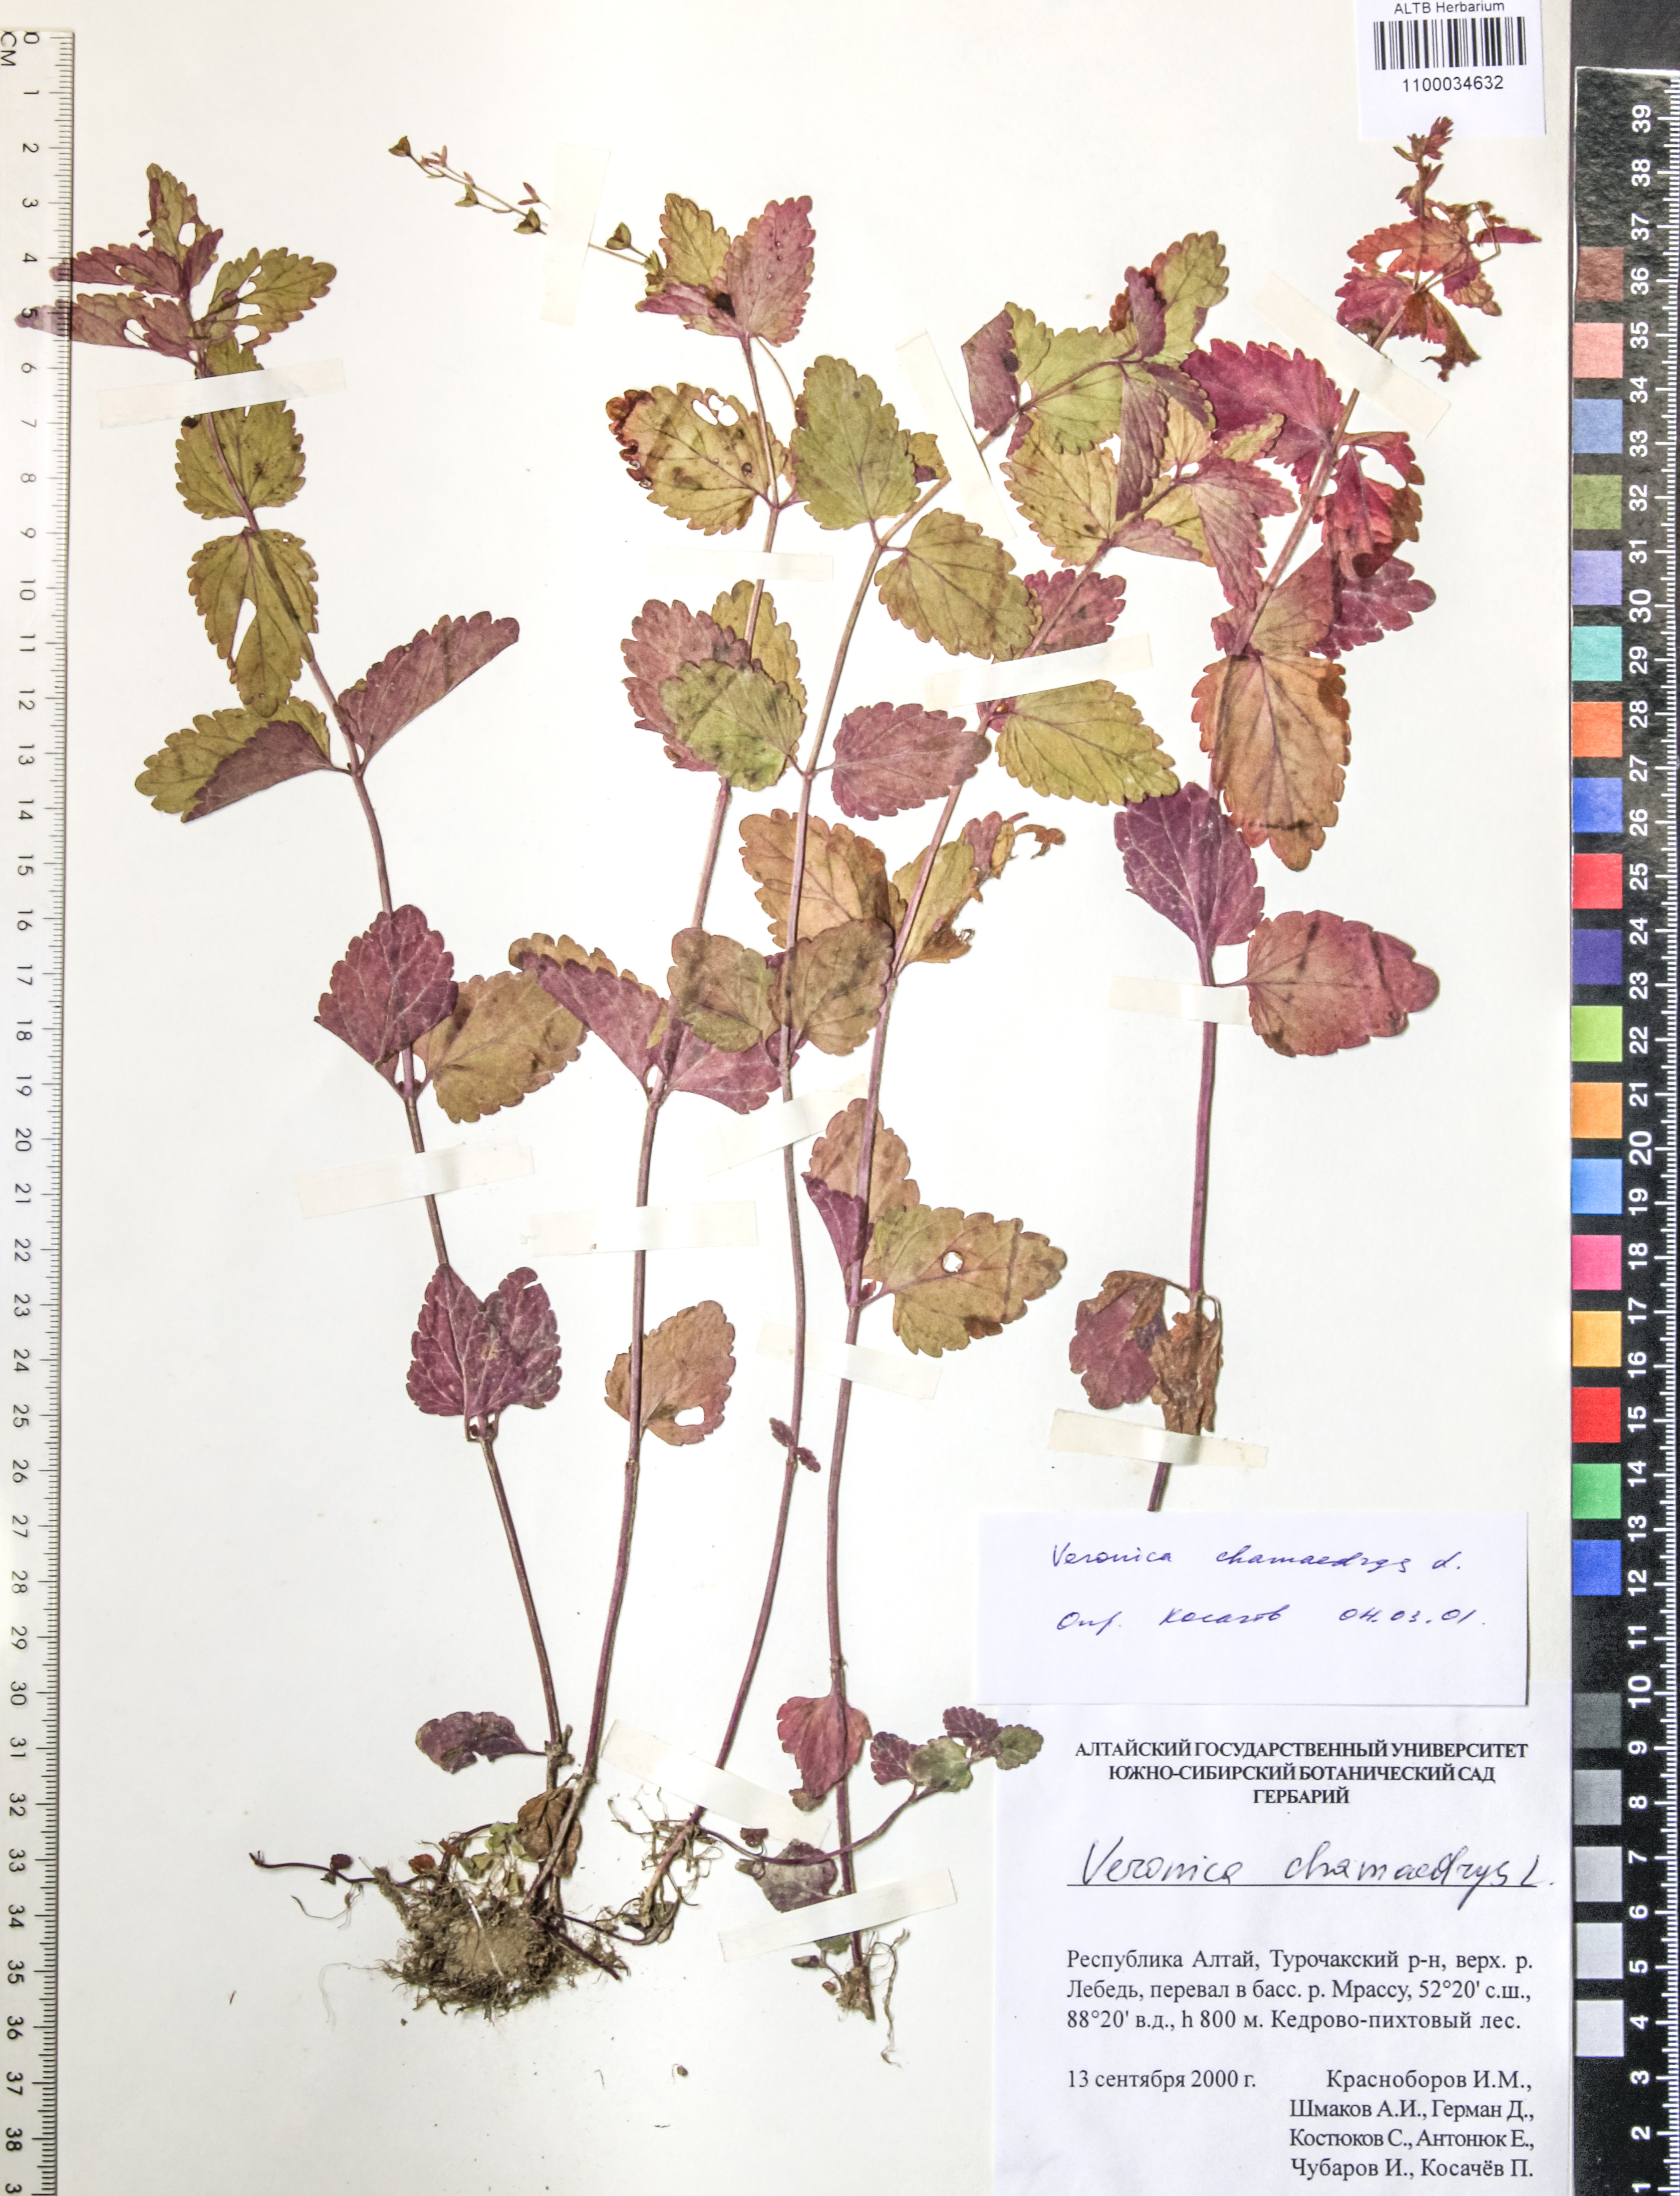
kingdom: Plantae
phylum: Tracheophyta
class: Magnoliopsida
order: Lamiales
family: Plantaginaceae
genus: Veronica
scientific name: Veronica chamaedrys
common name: Germander speedwell
